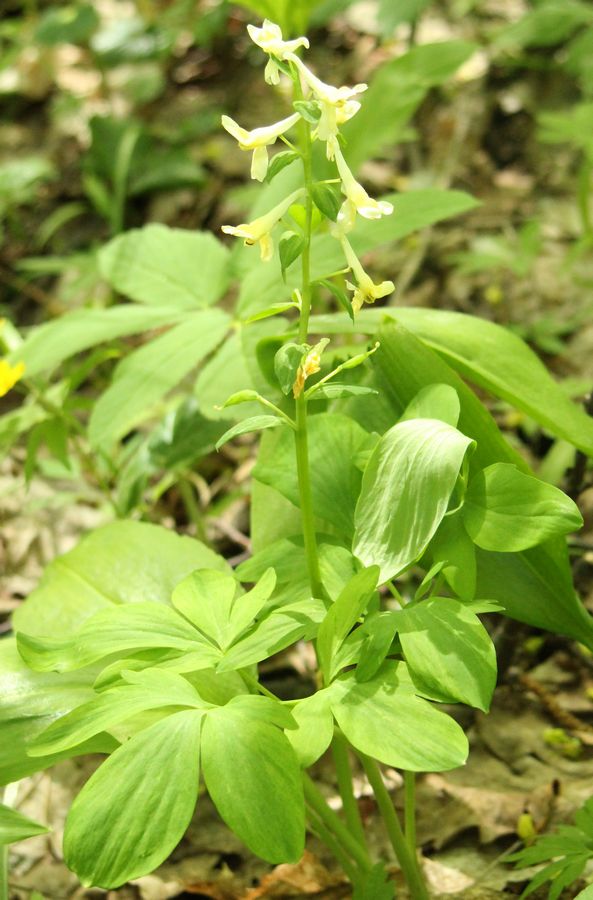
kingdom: Plantae
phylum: Tracheophyta
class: Magnoliopsida
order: Ranunculales
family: Papaveraceae
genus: Corydalis
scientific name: Corydalis cava
